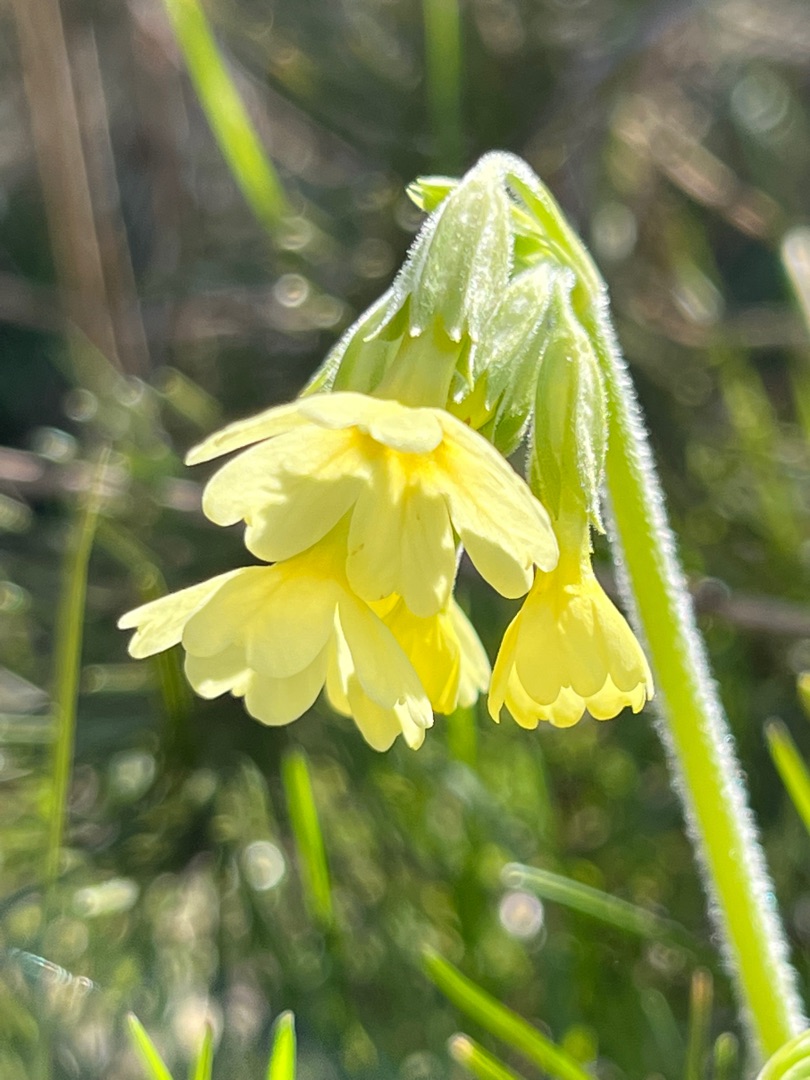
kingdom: Plantae
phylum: Tracheophyta
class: Magnoliopsida
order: Ericales
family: Primulaceae
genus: Primula
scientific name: Primula elatior
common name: Fladkravet kodriver
